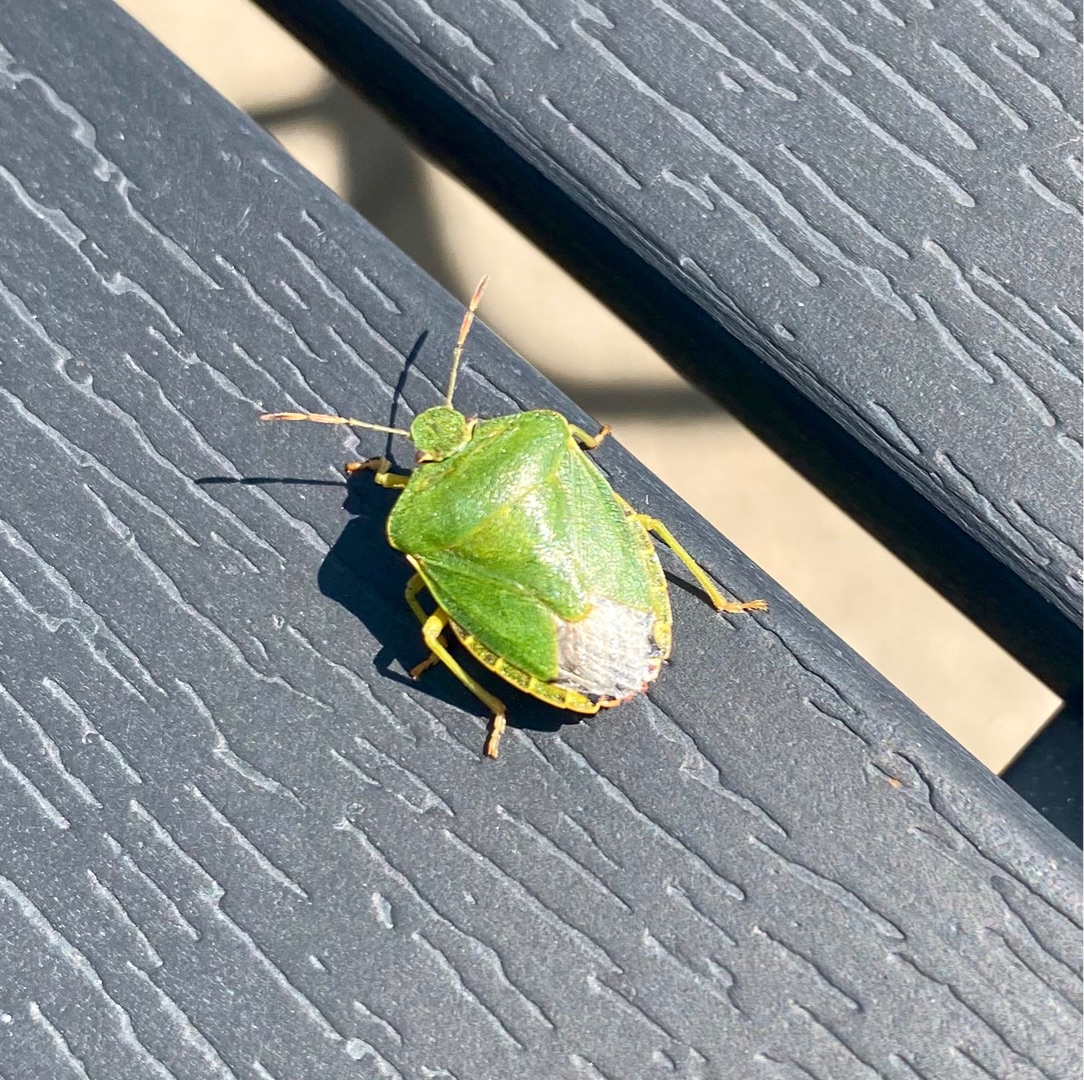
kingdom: Animalia
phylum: Arthropoda
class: Insecta
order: Hemiptera
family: Pentatomidae
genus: Palomena
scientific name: Palomena prasina
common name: Grøn bredtæge
